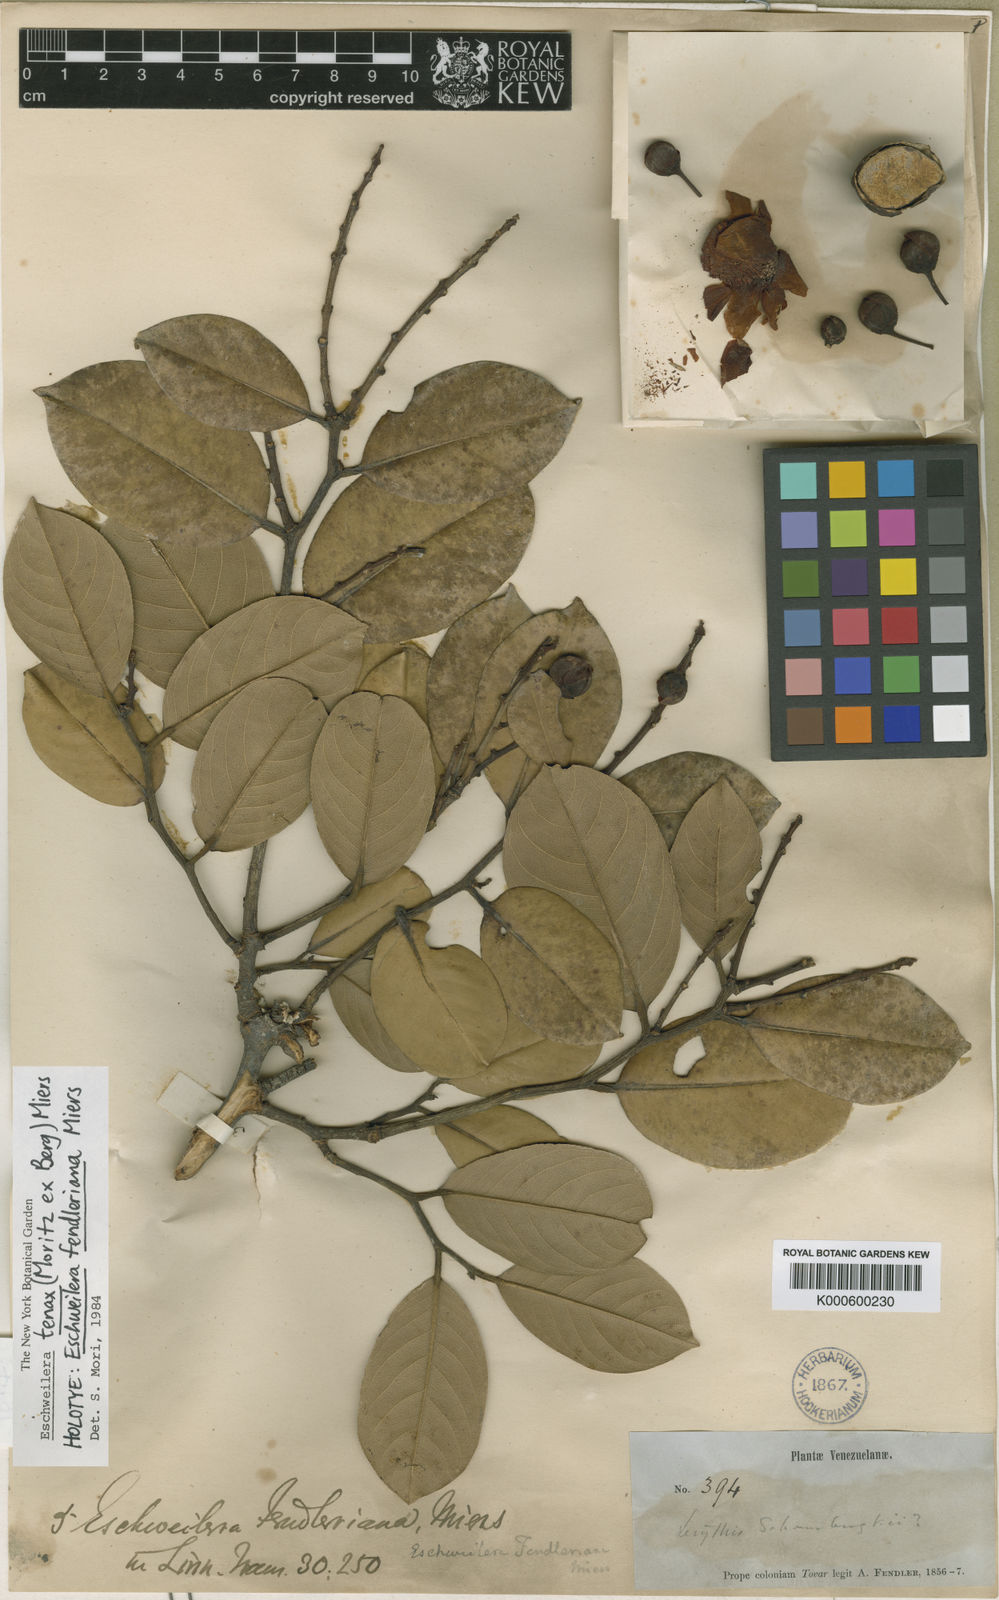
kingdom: Plantae
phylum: Tracheophyta
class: Magnoliopsida
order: Ericales
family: Lecythidaceae
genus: Eschweilera
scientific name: Eschweilera tenax
